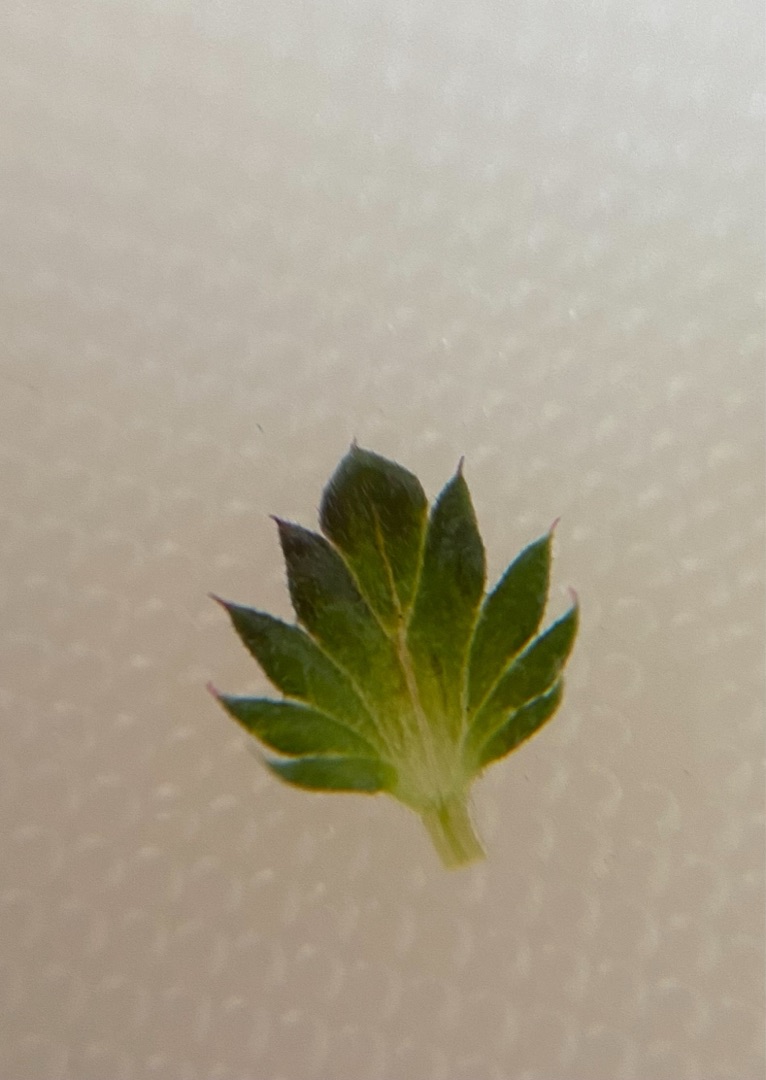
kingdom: Plantae
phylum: Tracheophyta
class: Magnoliopsida
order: Lamiales
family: Orobanchaceae
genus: Euphrasia
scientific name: Euphrasia nemorosa
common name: Kort øjentrøst
